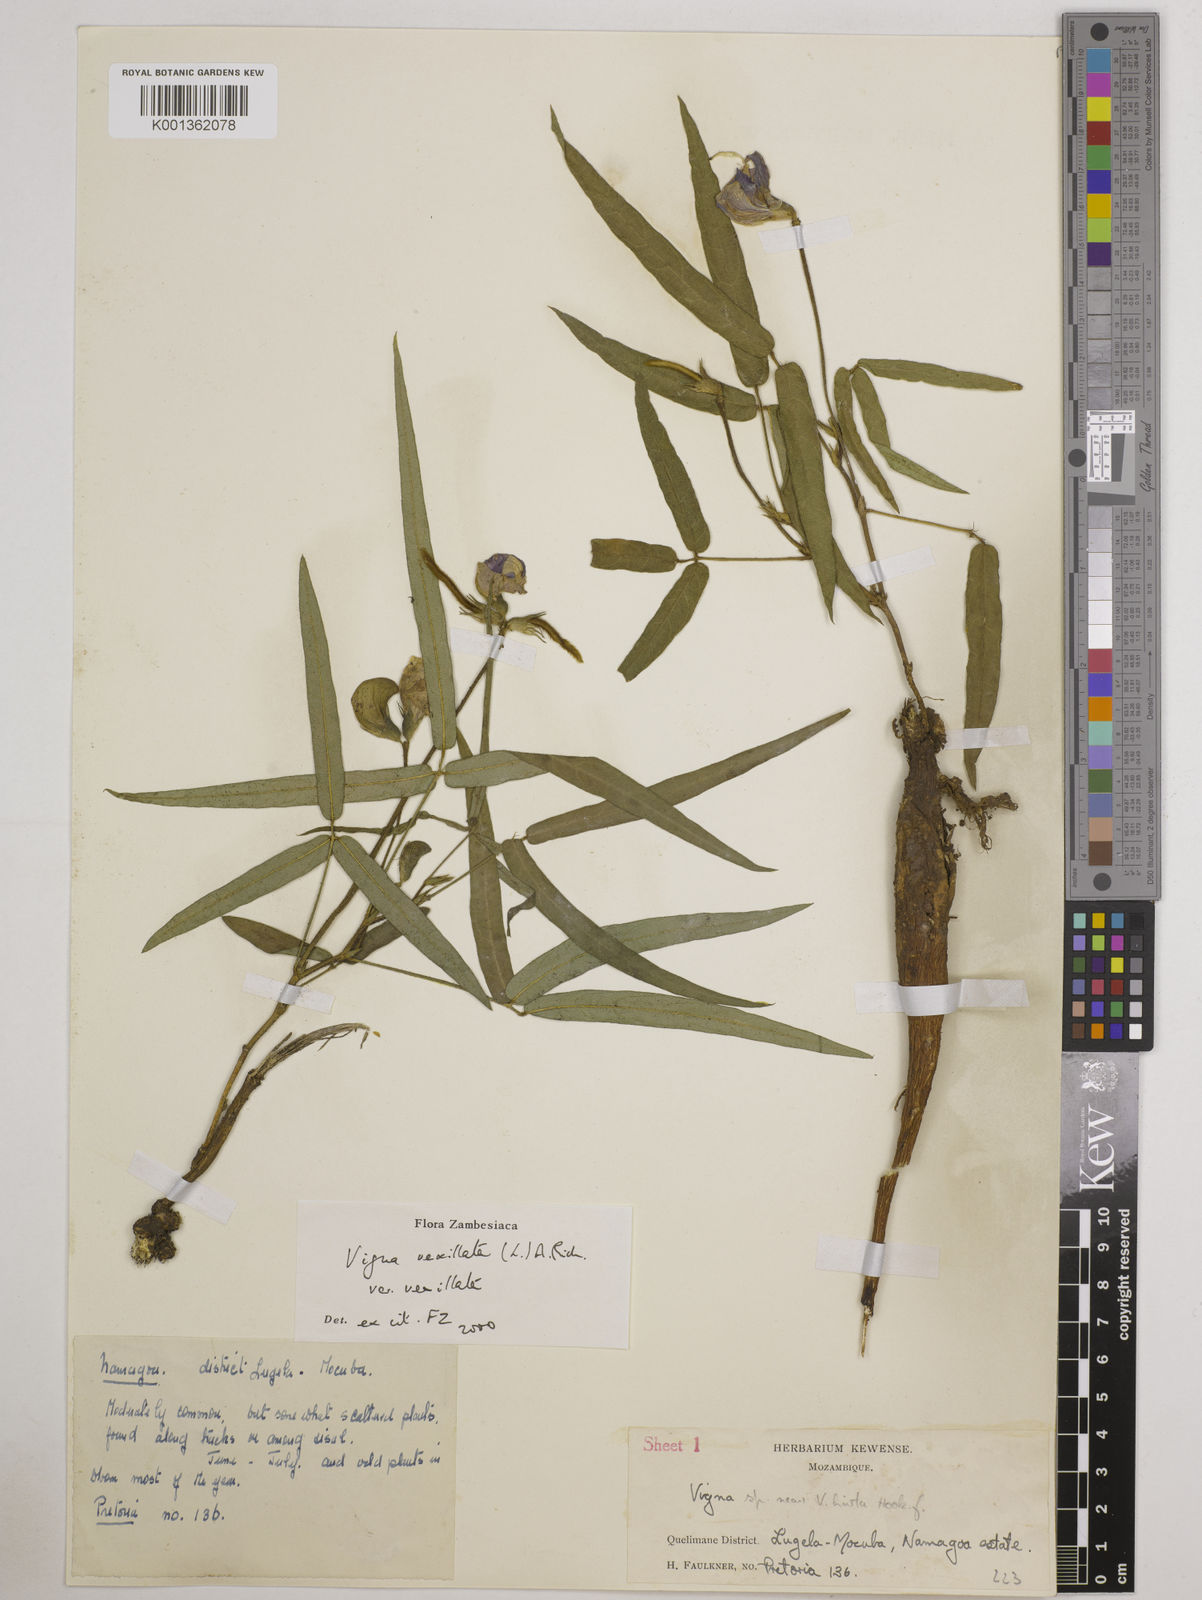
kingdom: Plantae
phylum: Tracheophyta
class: Magnoliopsida
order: Fabales
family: Fabaceae
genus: Vigna
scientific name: Vigna vexillata
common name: Zombi pea
